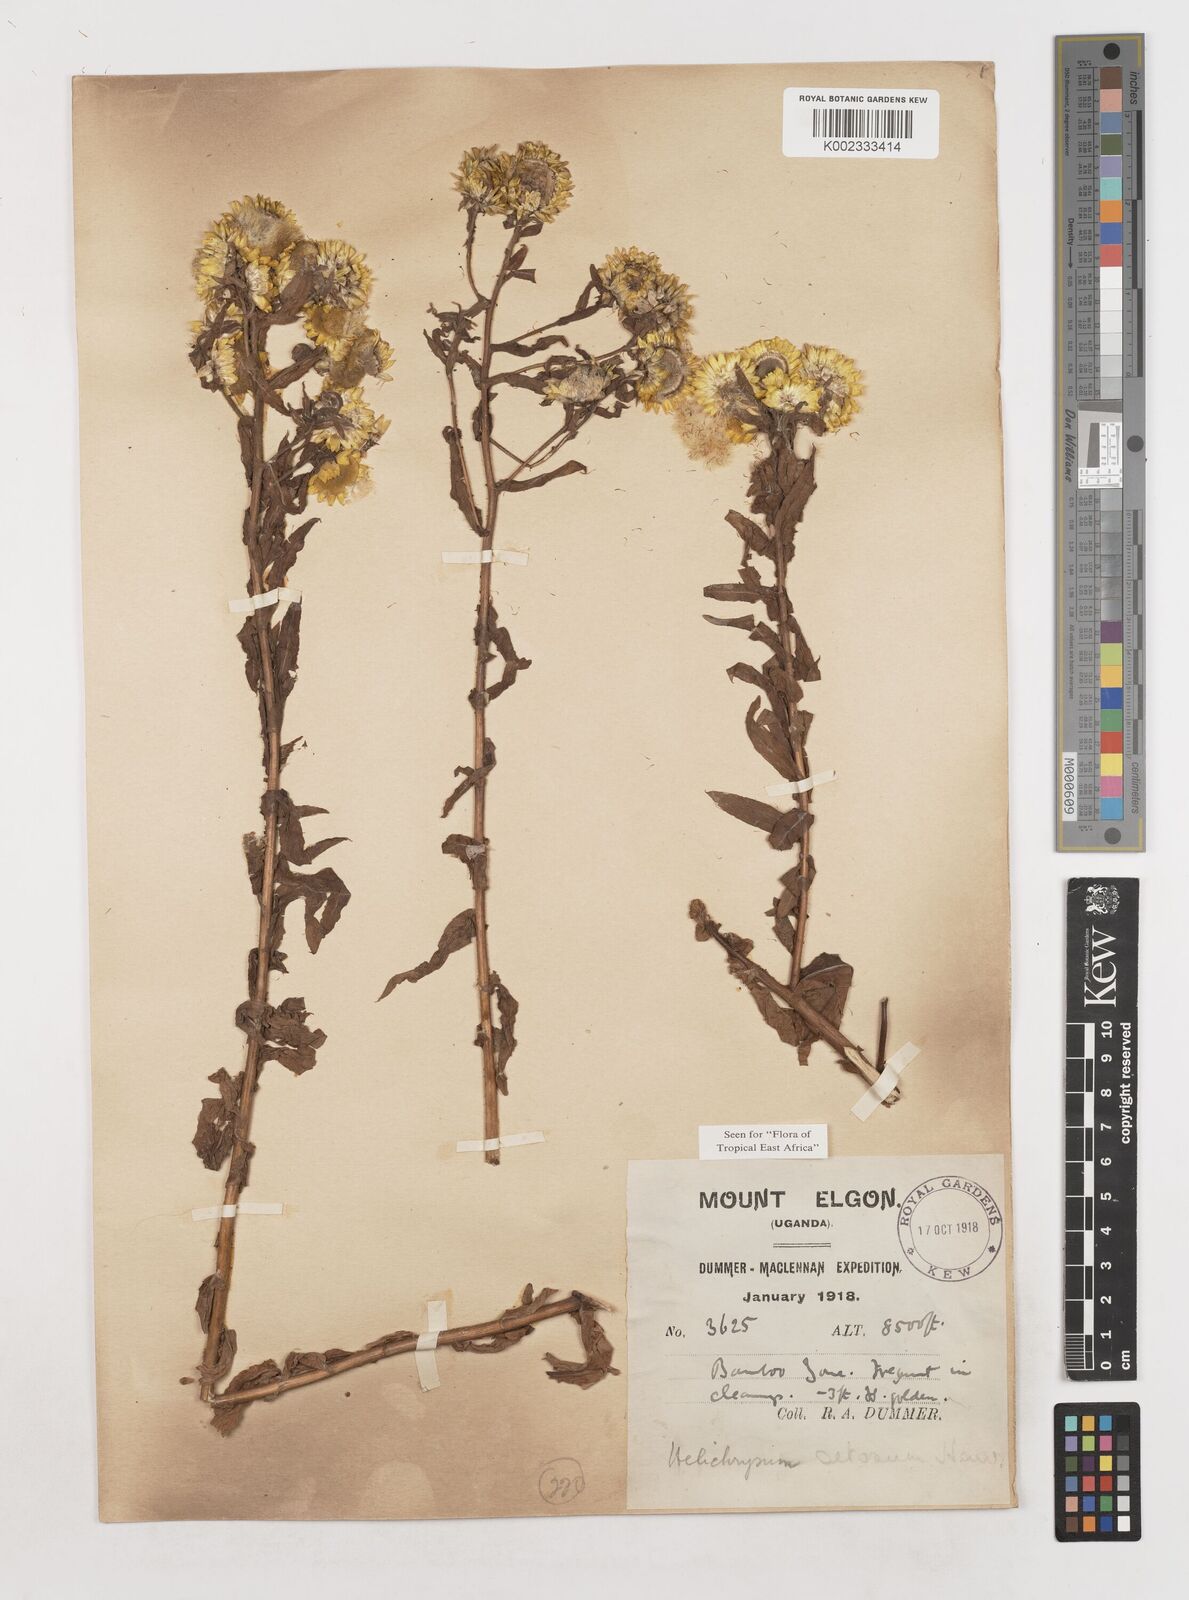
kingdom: Plantae
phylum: Tracheophyta
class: Magnoliopsida
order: Asterales
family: Asteraceae
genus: Helichrysum
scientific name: Helichrysum setosum
